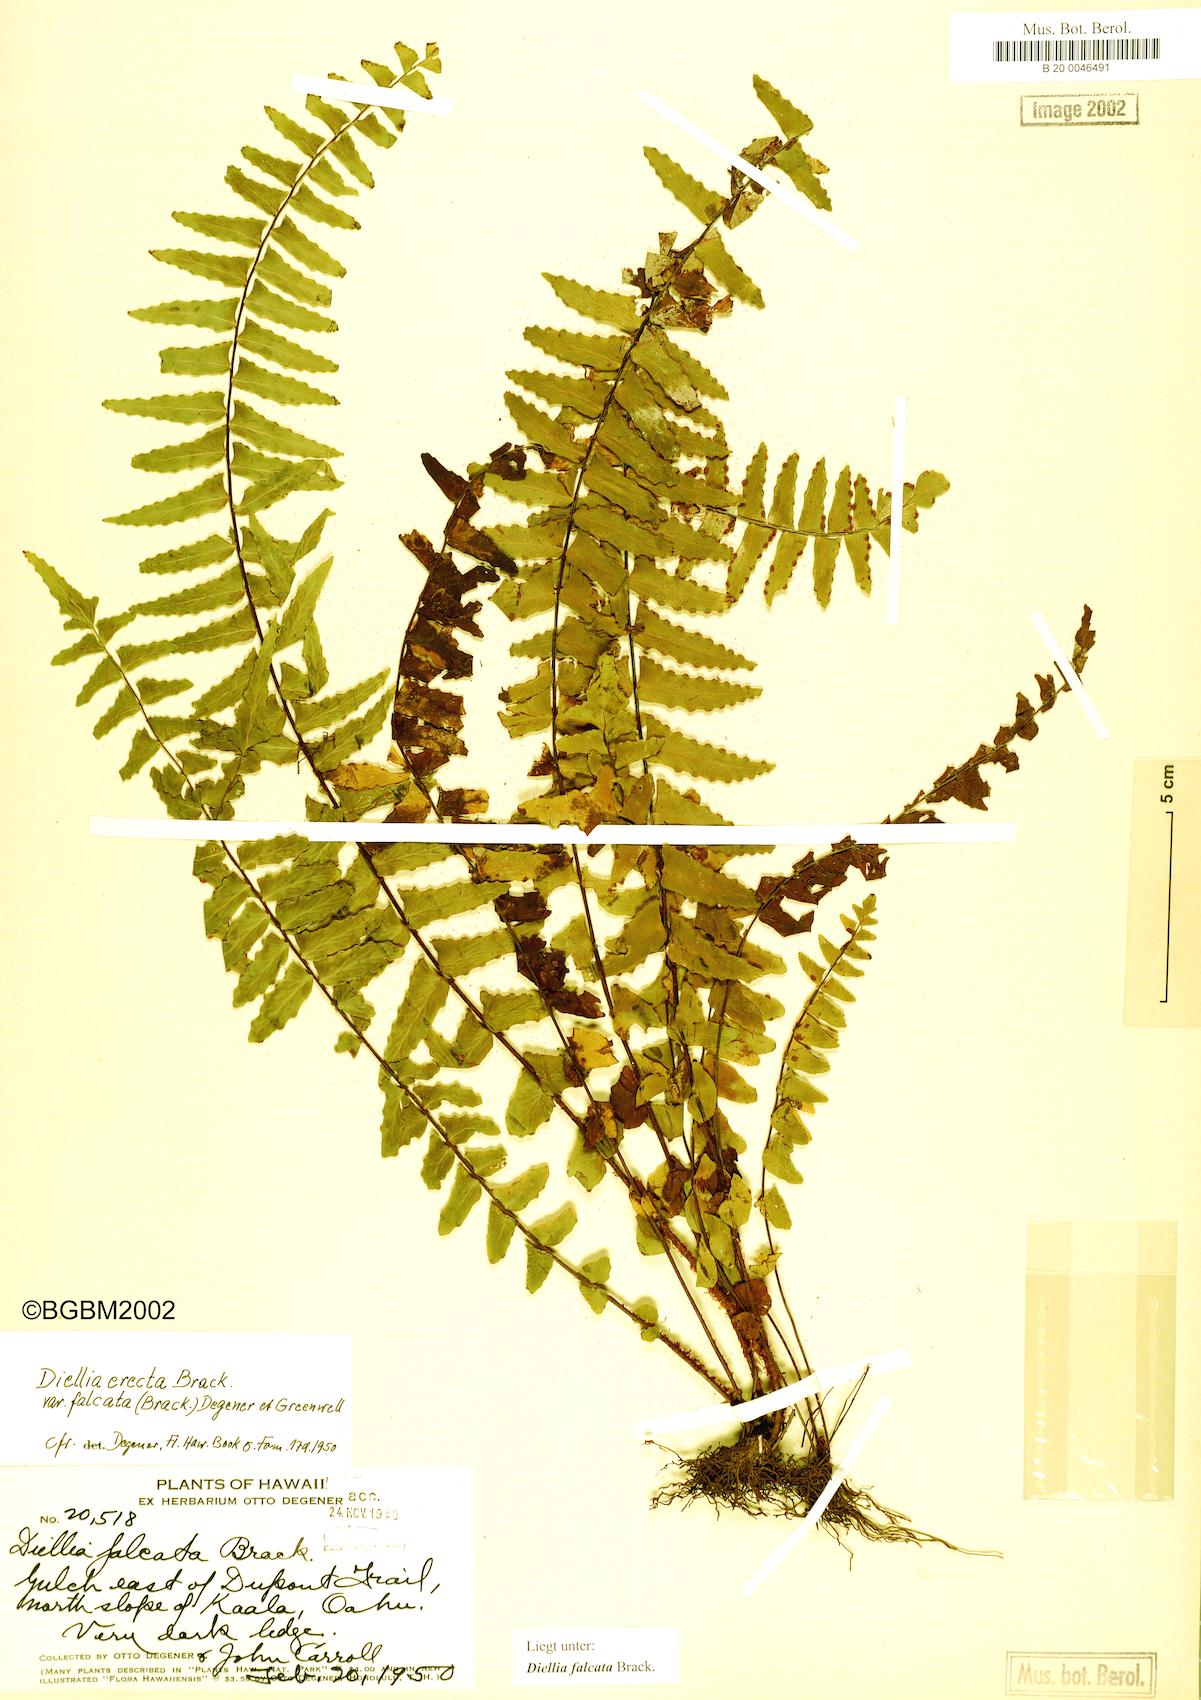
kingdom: Plantae
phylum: Tracheophyta
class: Polypodiopsida
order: Polypodiales
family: Aspleniaceae
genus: Asplenium
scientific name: Asplenium dielfalcatum
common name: Sickle island spleenwort
